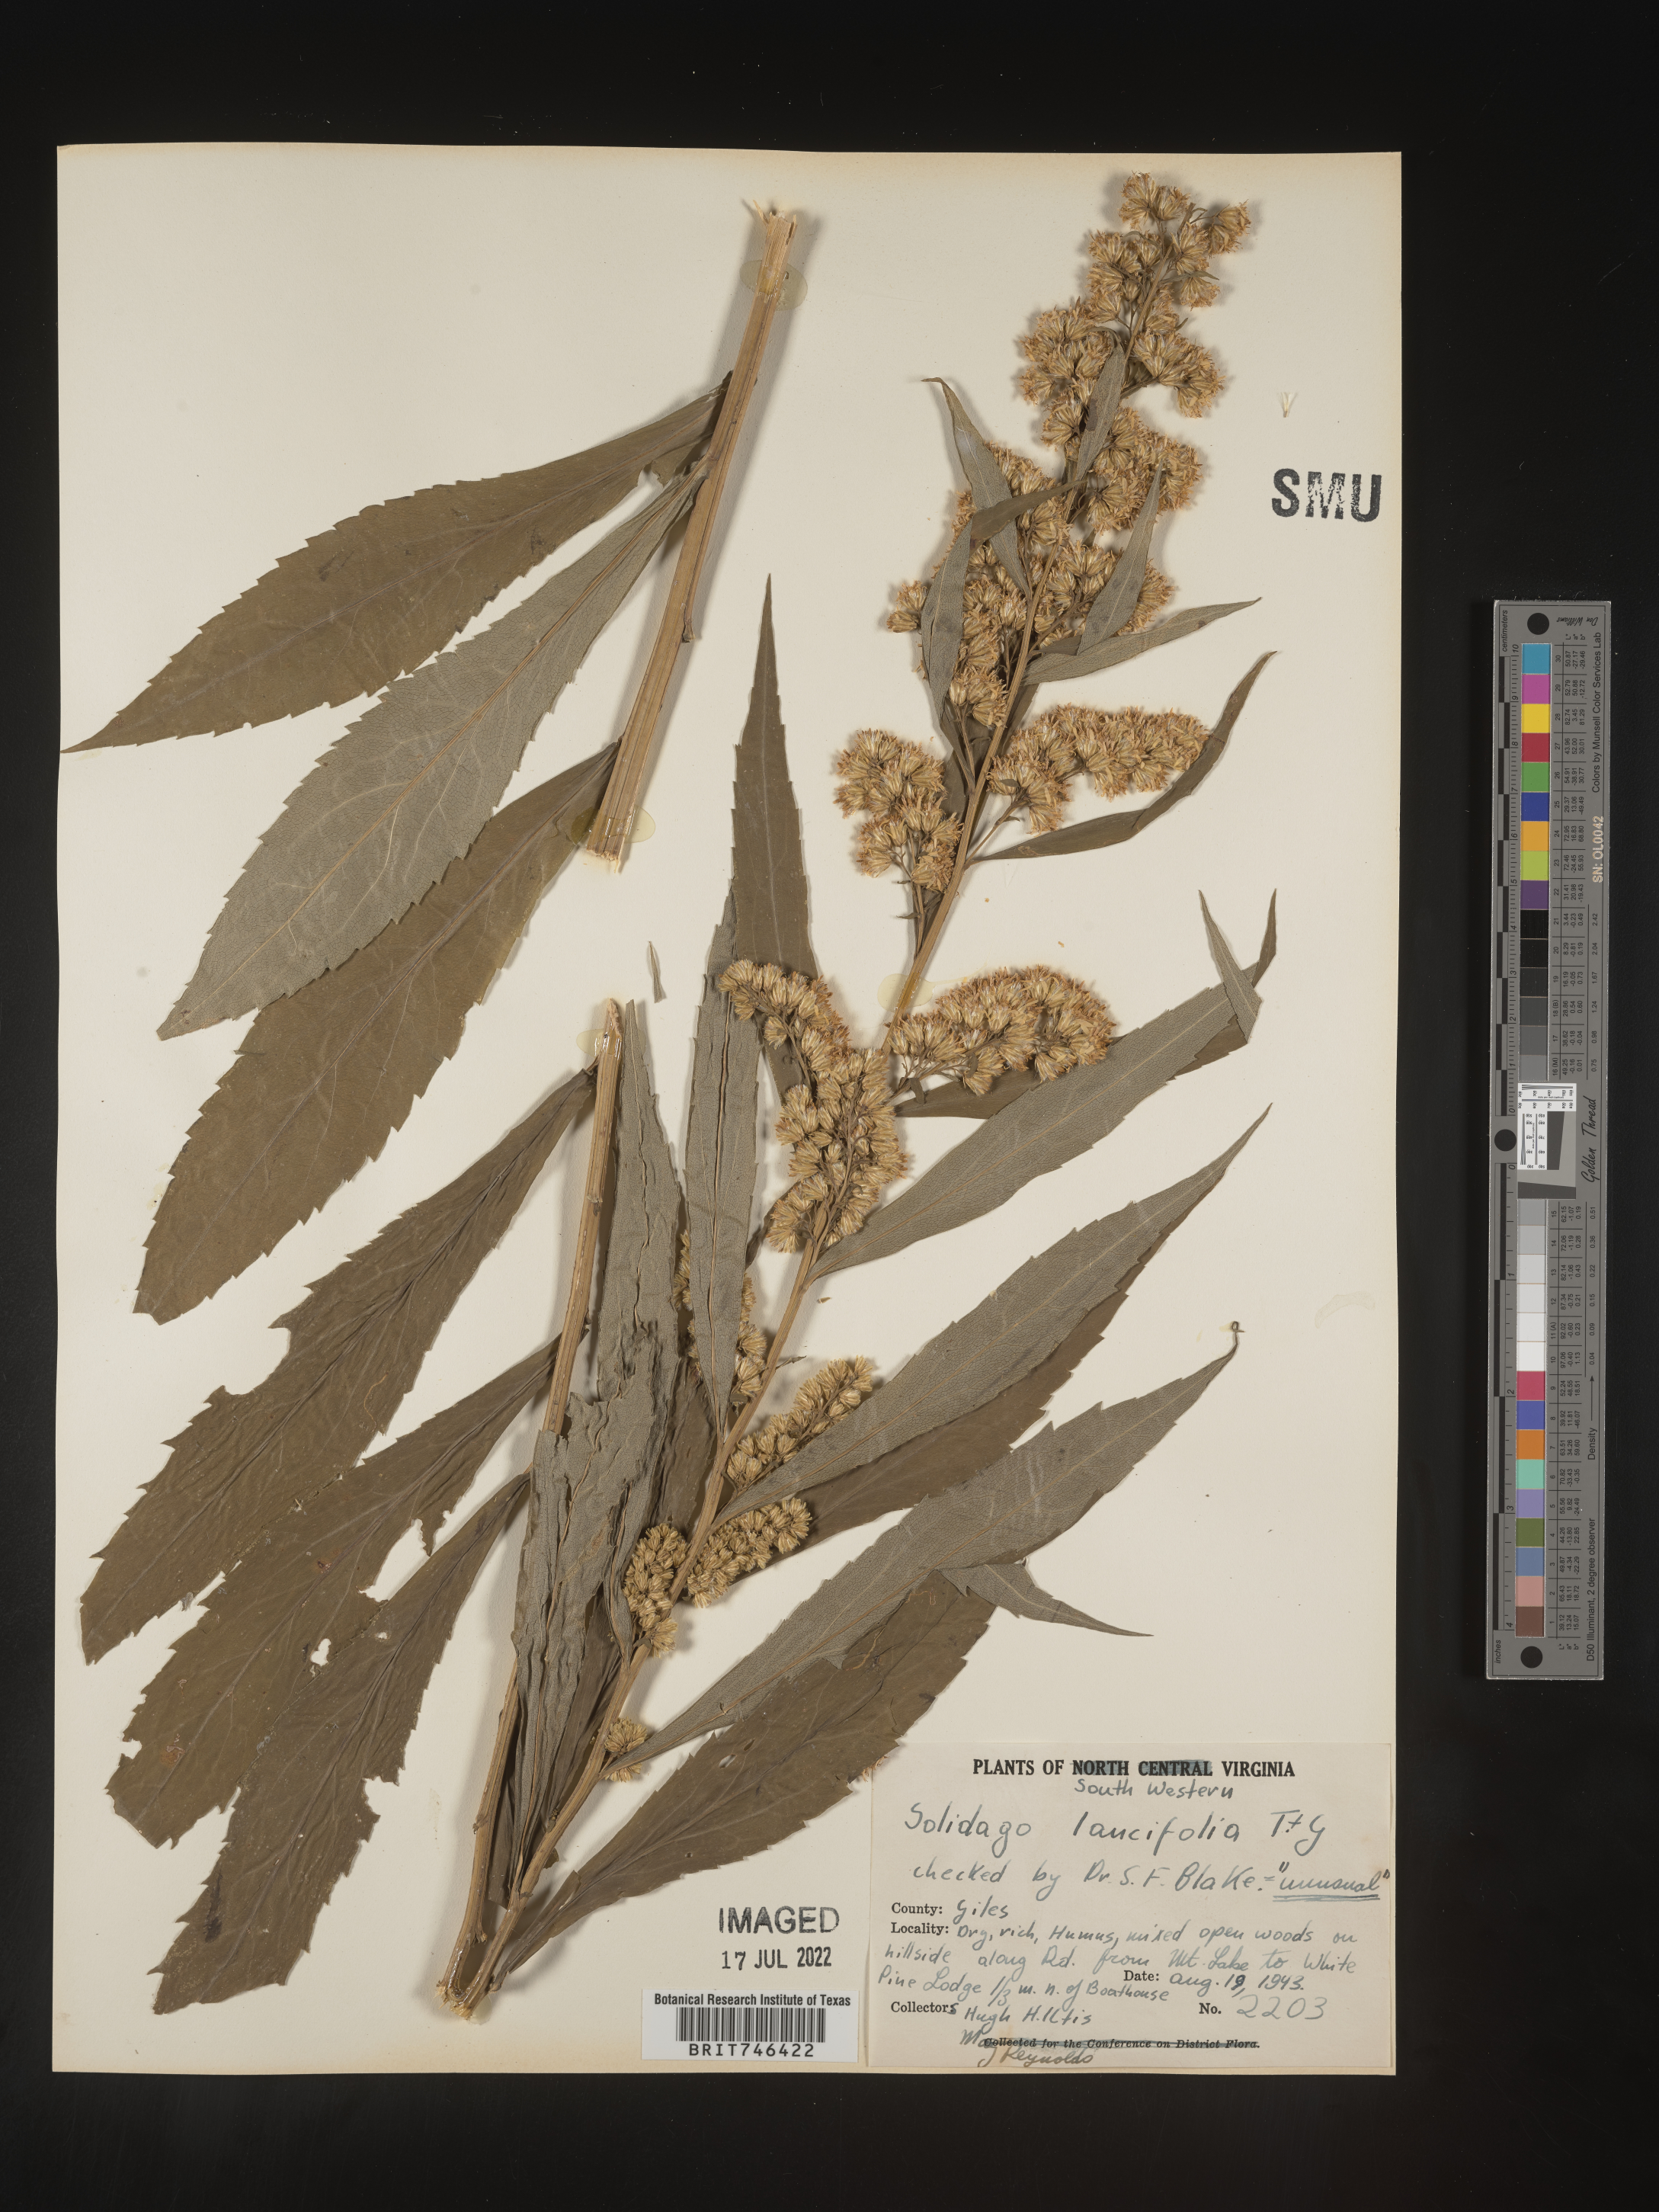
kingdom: Plantae
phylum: Tracheophyta
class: Magnoliopsida
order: Asterales
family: Asteraceae
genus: Solidago
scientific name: Solidago flaccidifolia
